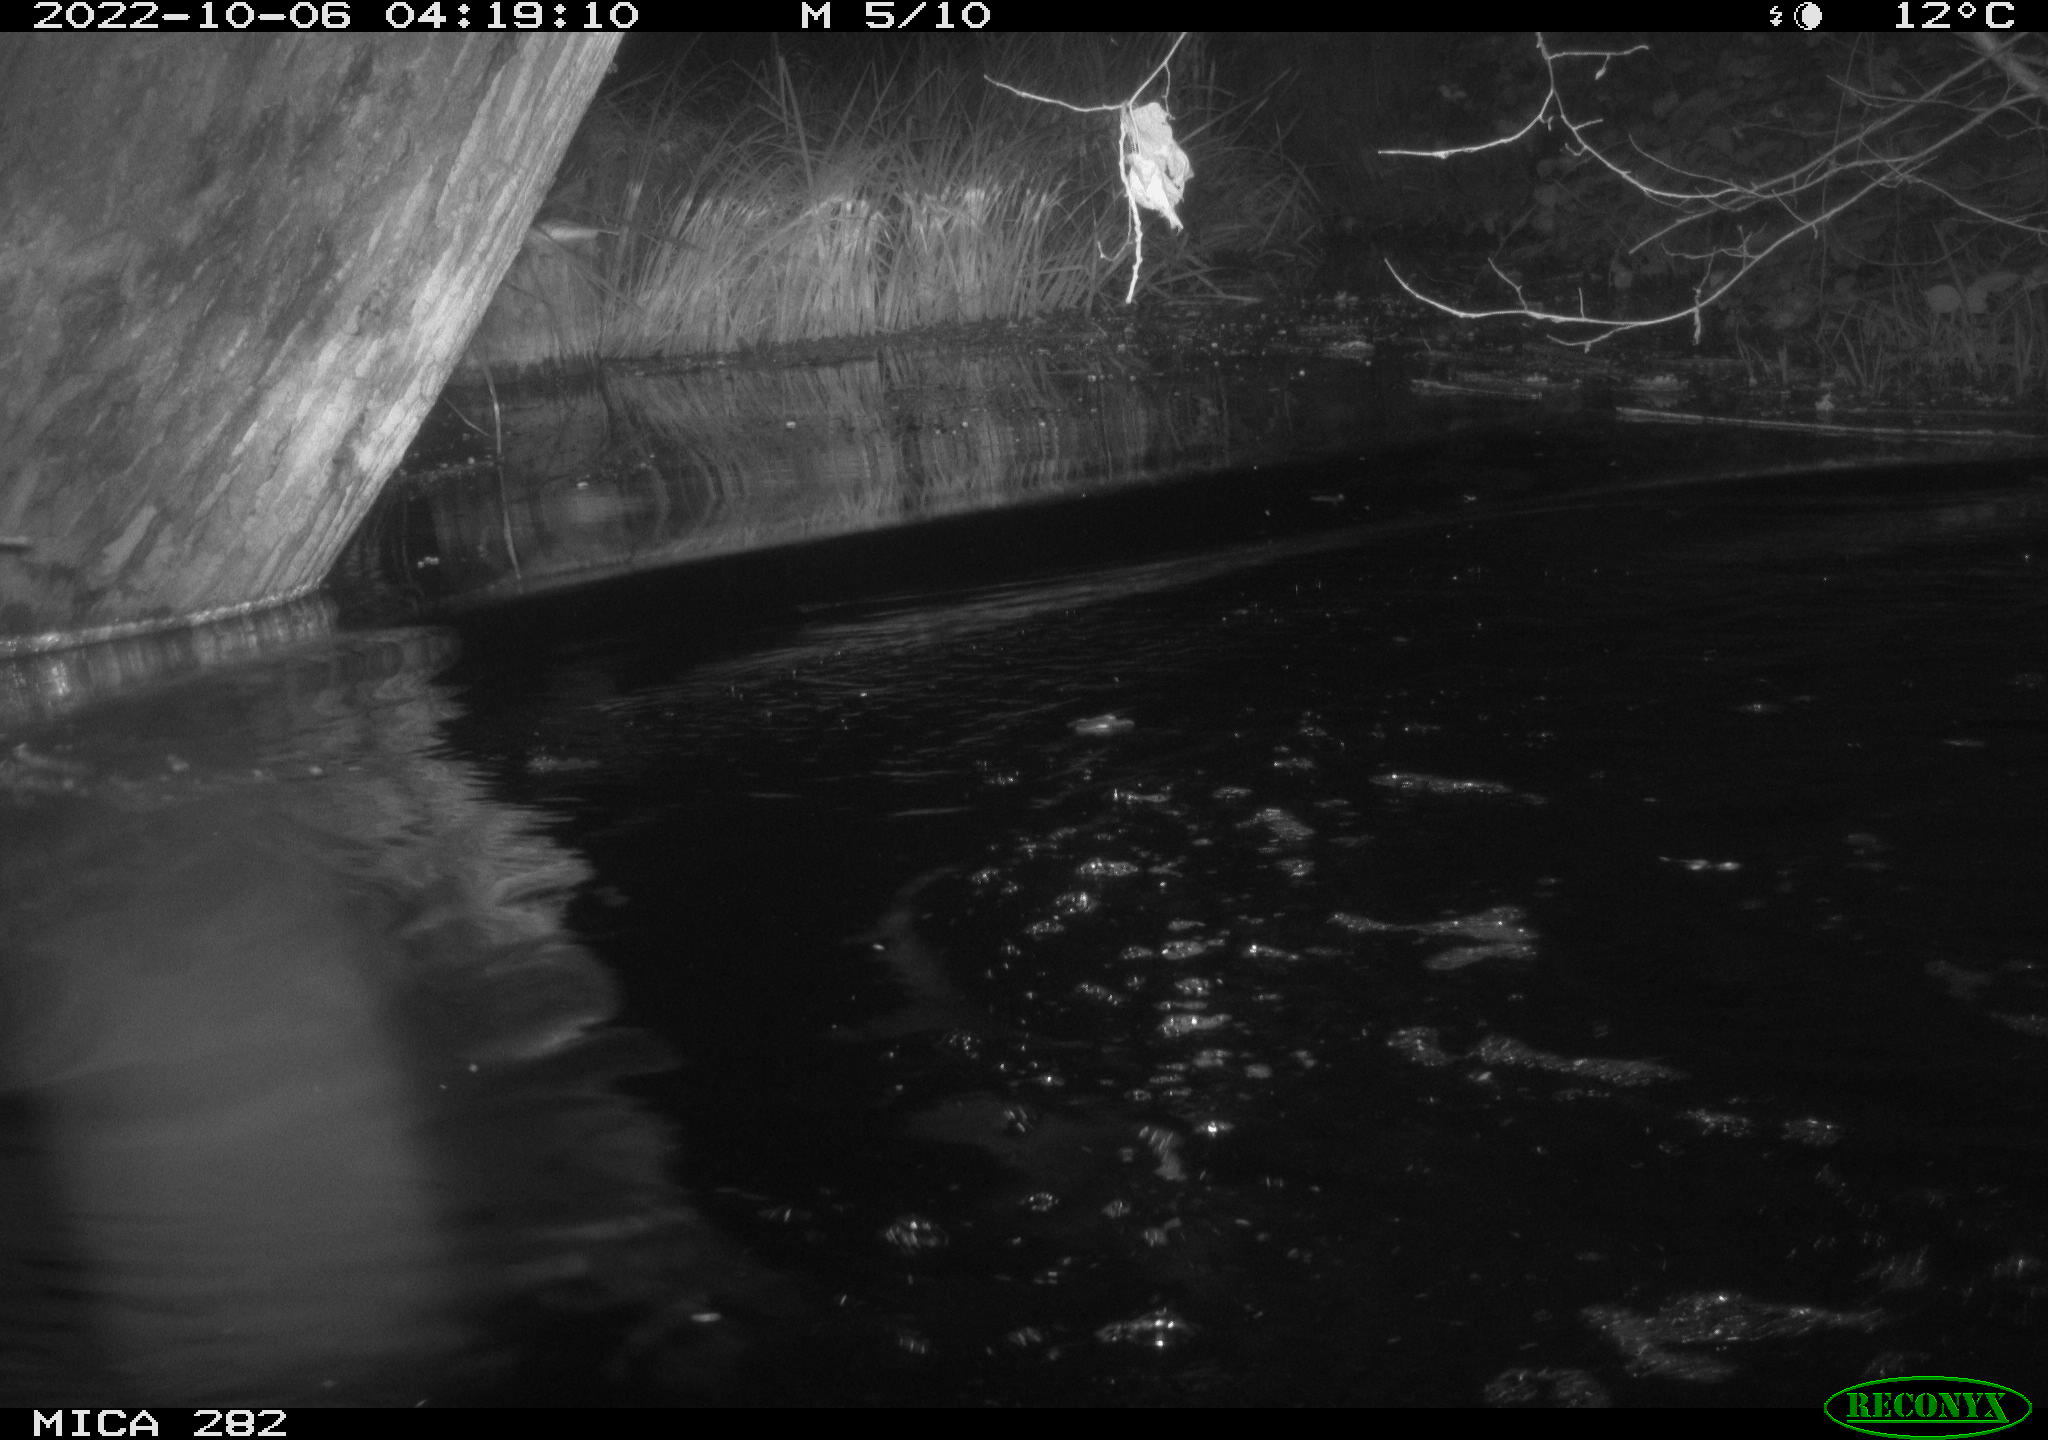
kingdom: Animalia
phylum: Chordata
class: Mammalia
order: Artiodactyla
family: Suidae
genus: Sus
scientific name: Sus scrofa
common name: Wild boar
